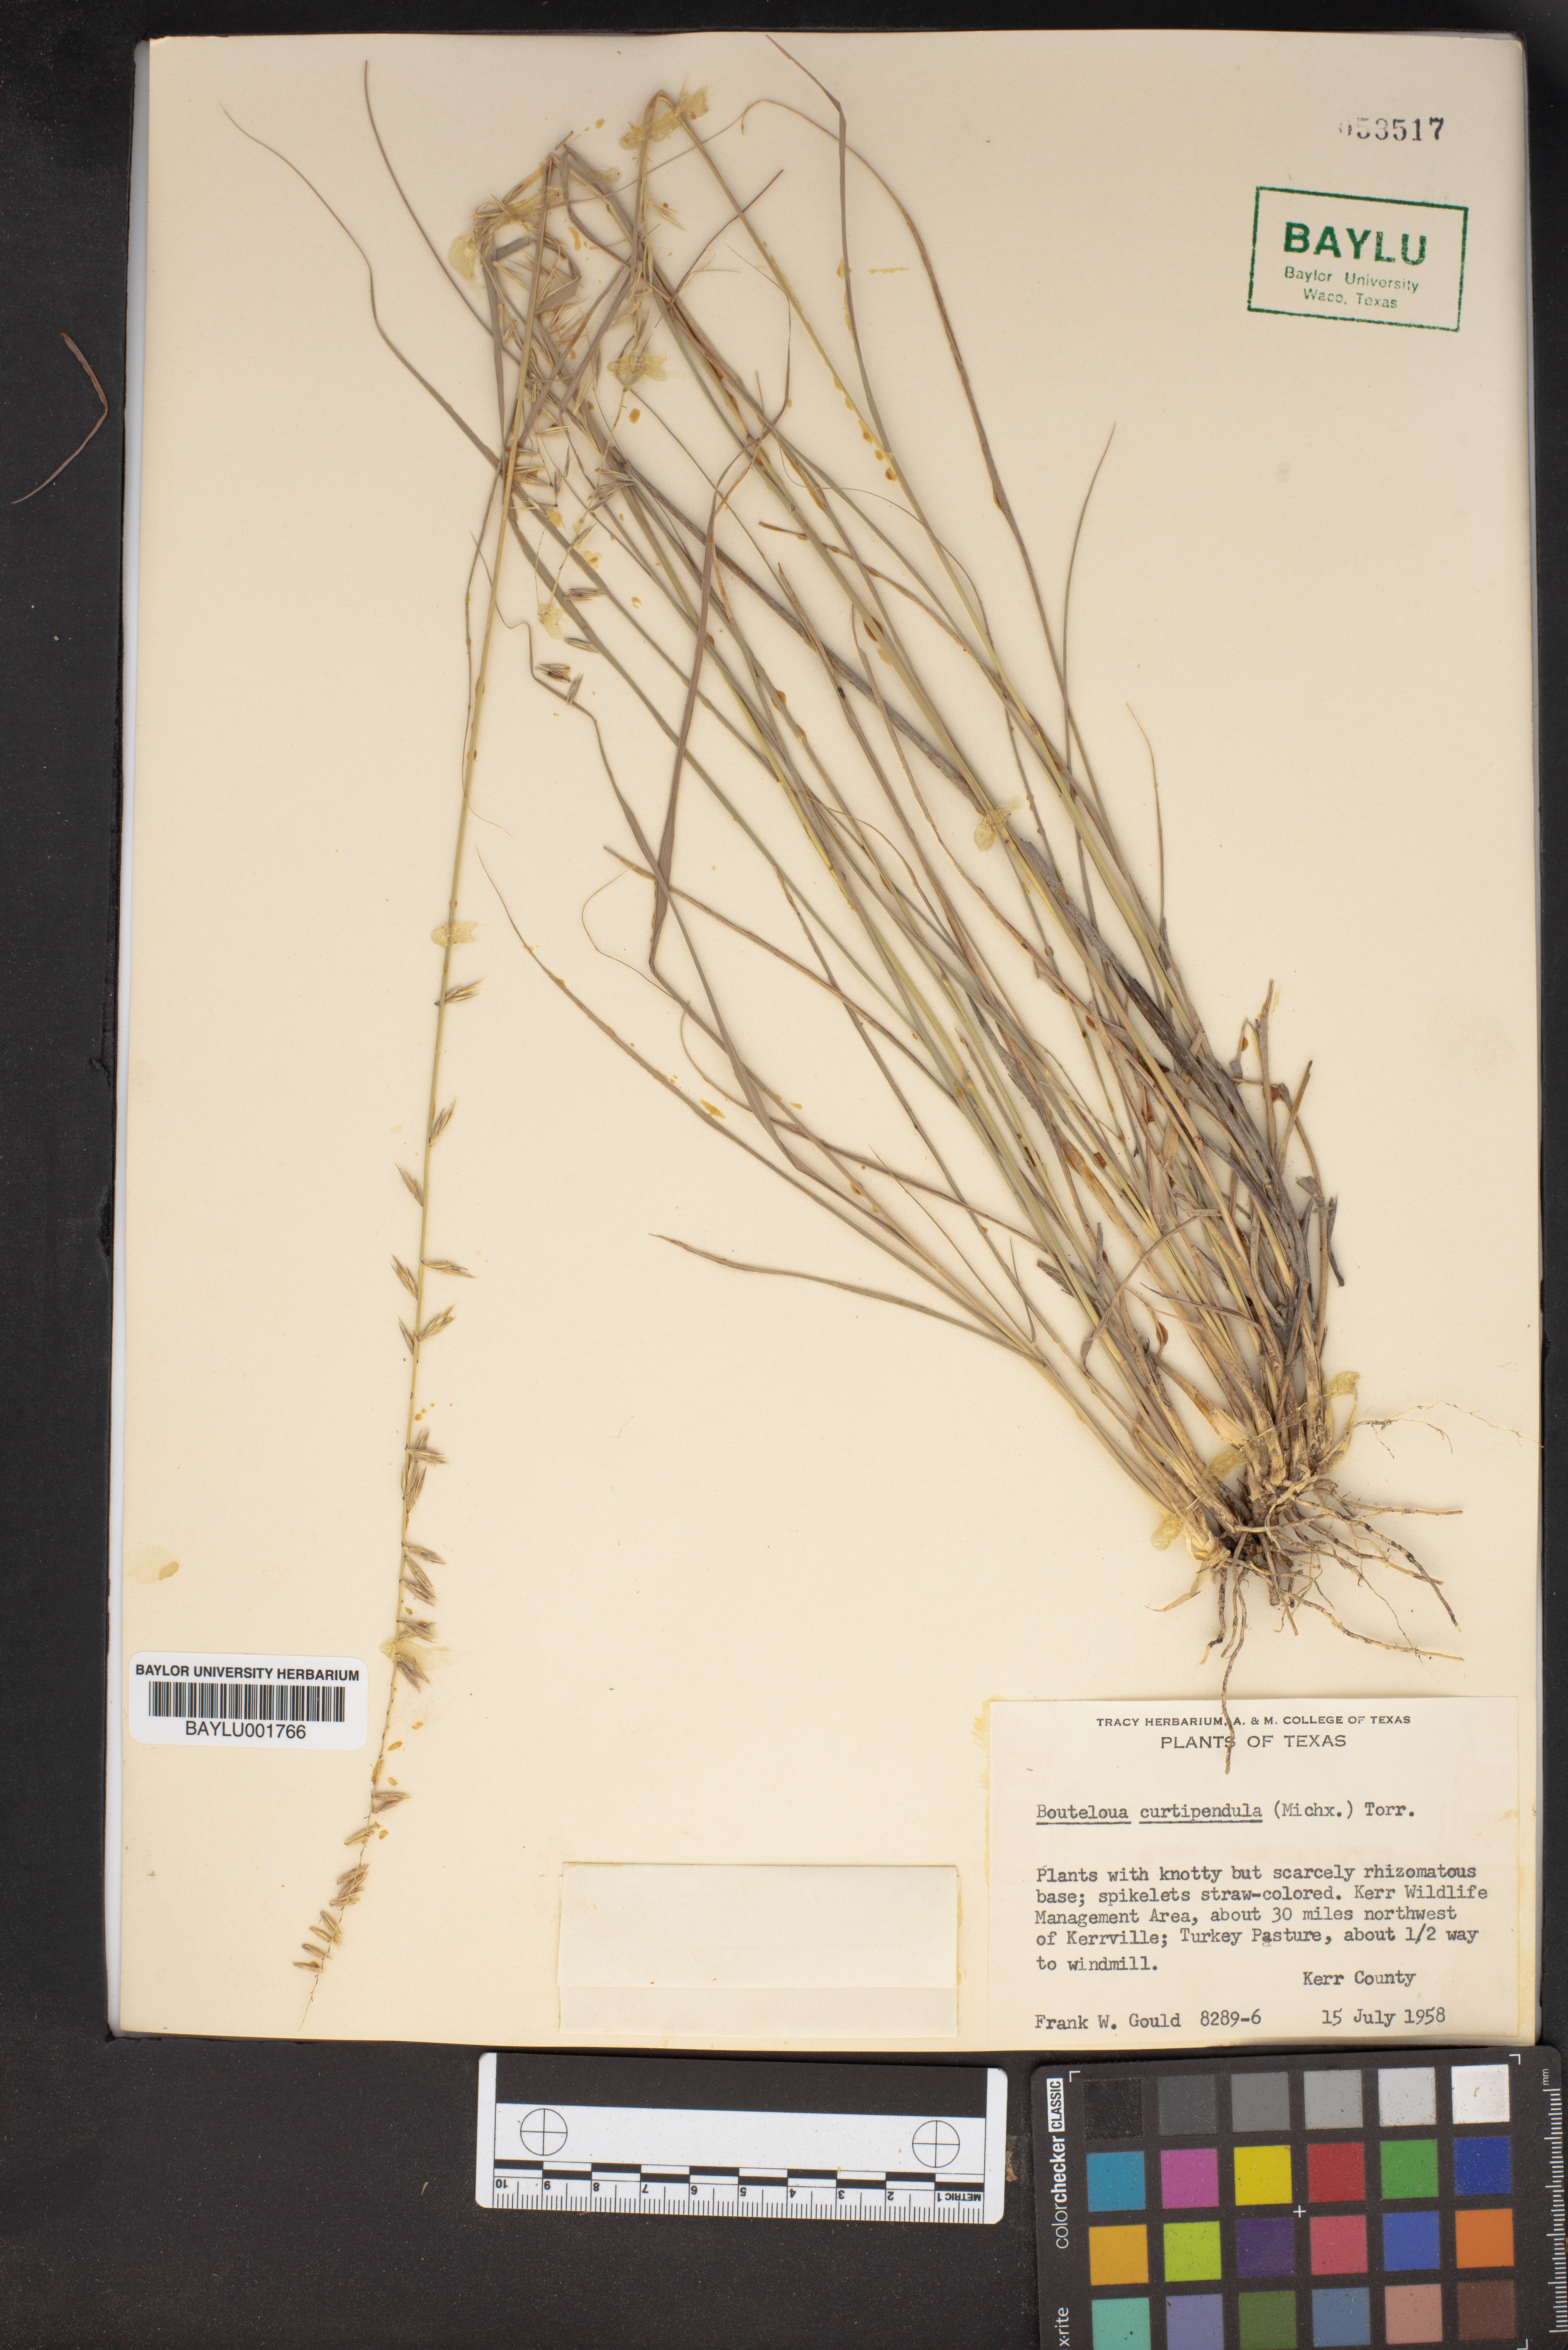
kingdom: Plantae
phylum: Tracheophyta
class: Liliopsida
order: Poales
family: Poaceae
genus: Bouteloua
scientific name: Bouteloua curtipendula
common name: Side-oats grama
